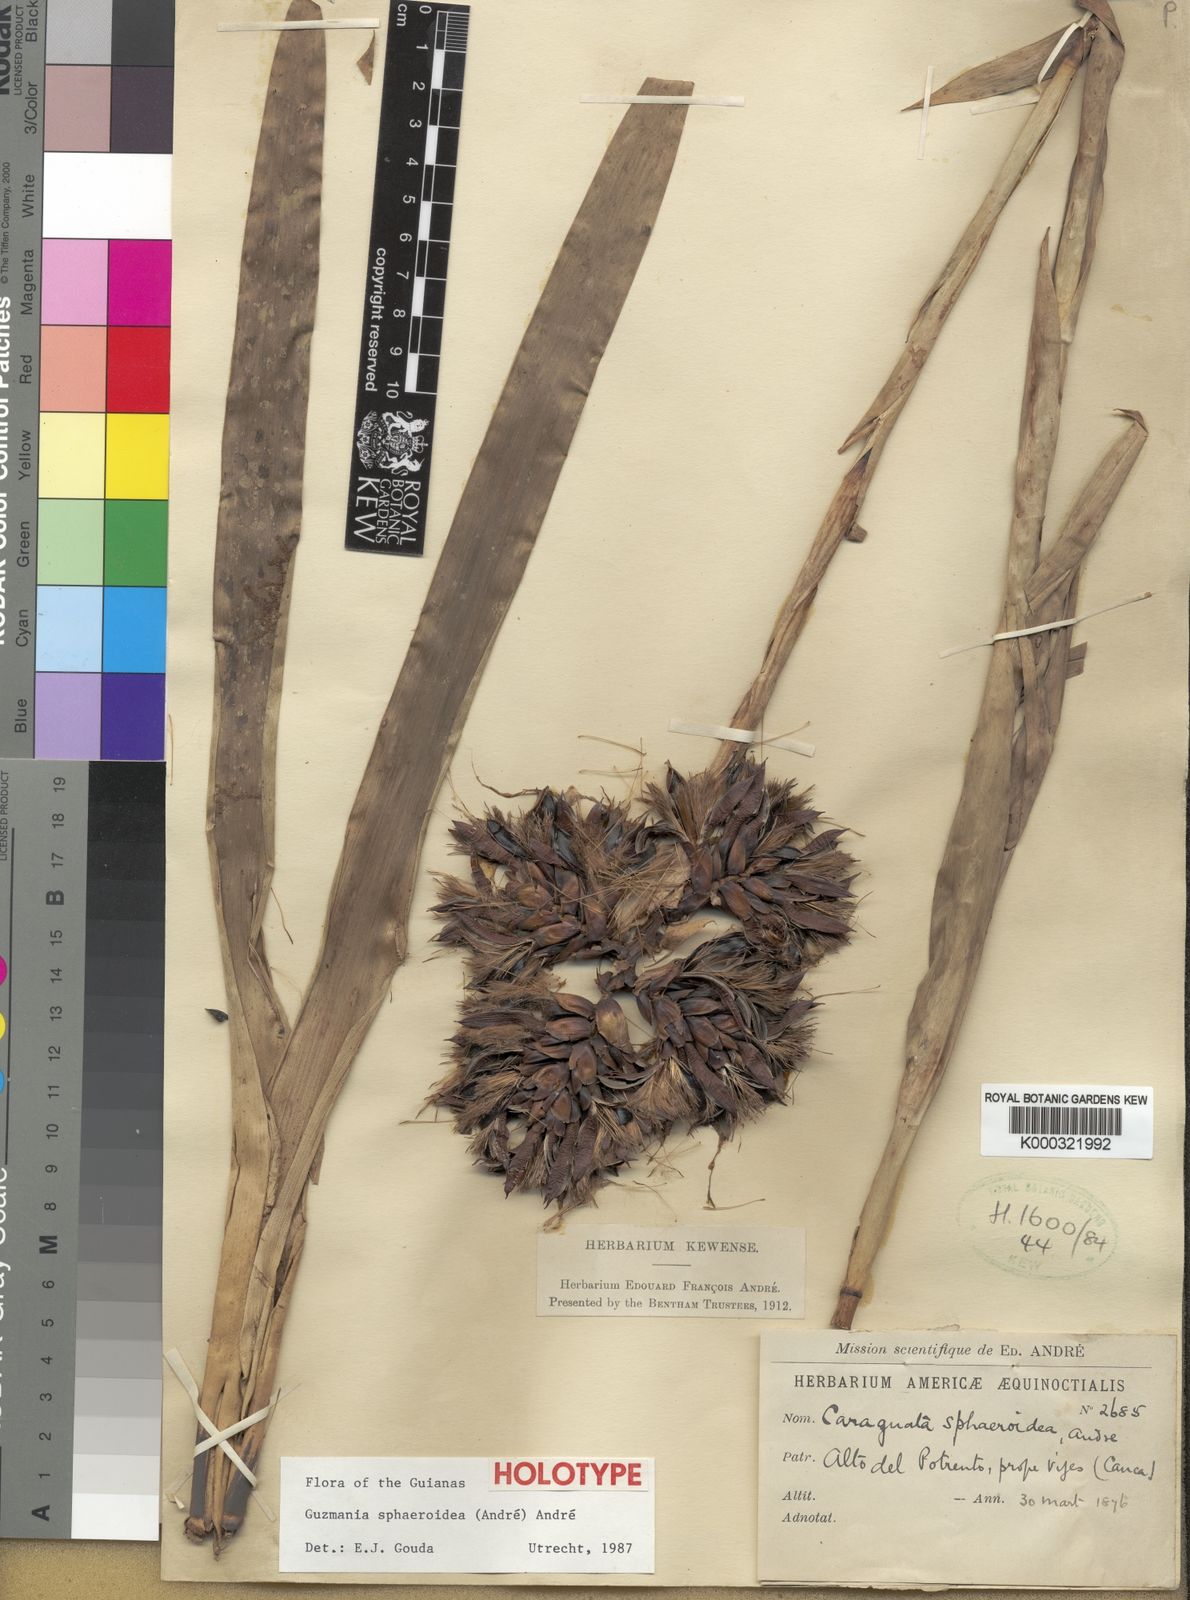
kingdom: Plantae
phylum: Tracheophyta
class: Liliopsida
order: Poales
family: Bromeliaceae
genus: Guzmania
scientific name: Guzmania sphaeroidea
